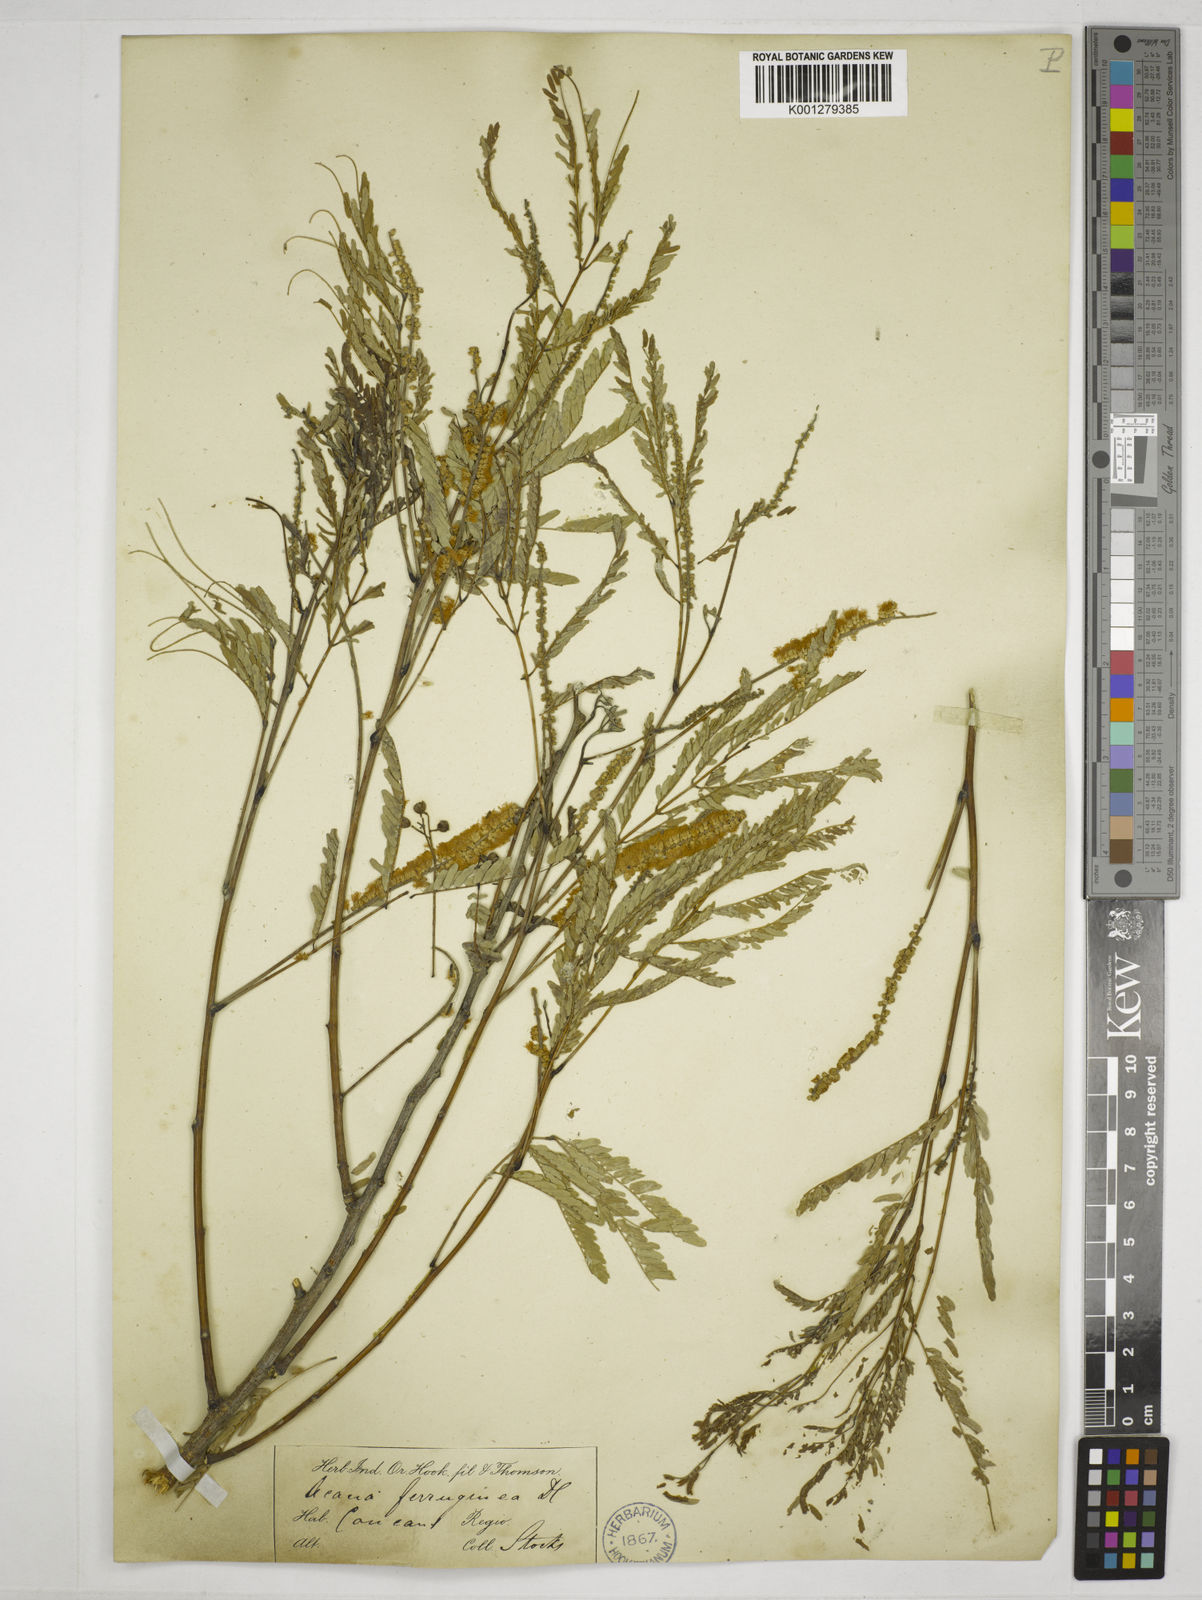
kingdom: Plantae
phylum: Tracheophyta
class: Magnoliopsida
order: Fabales
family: Fabaceae
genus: Senegalia
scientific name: Senegalia ferruginea
